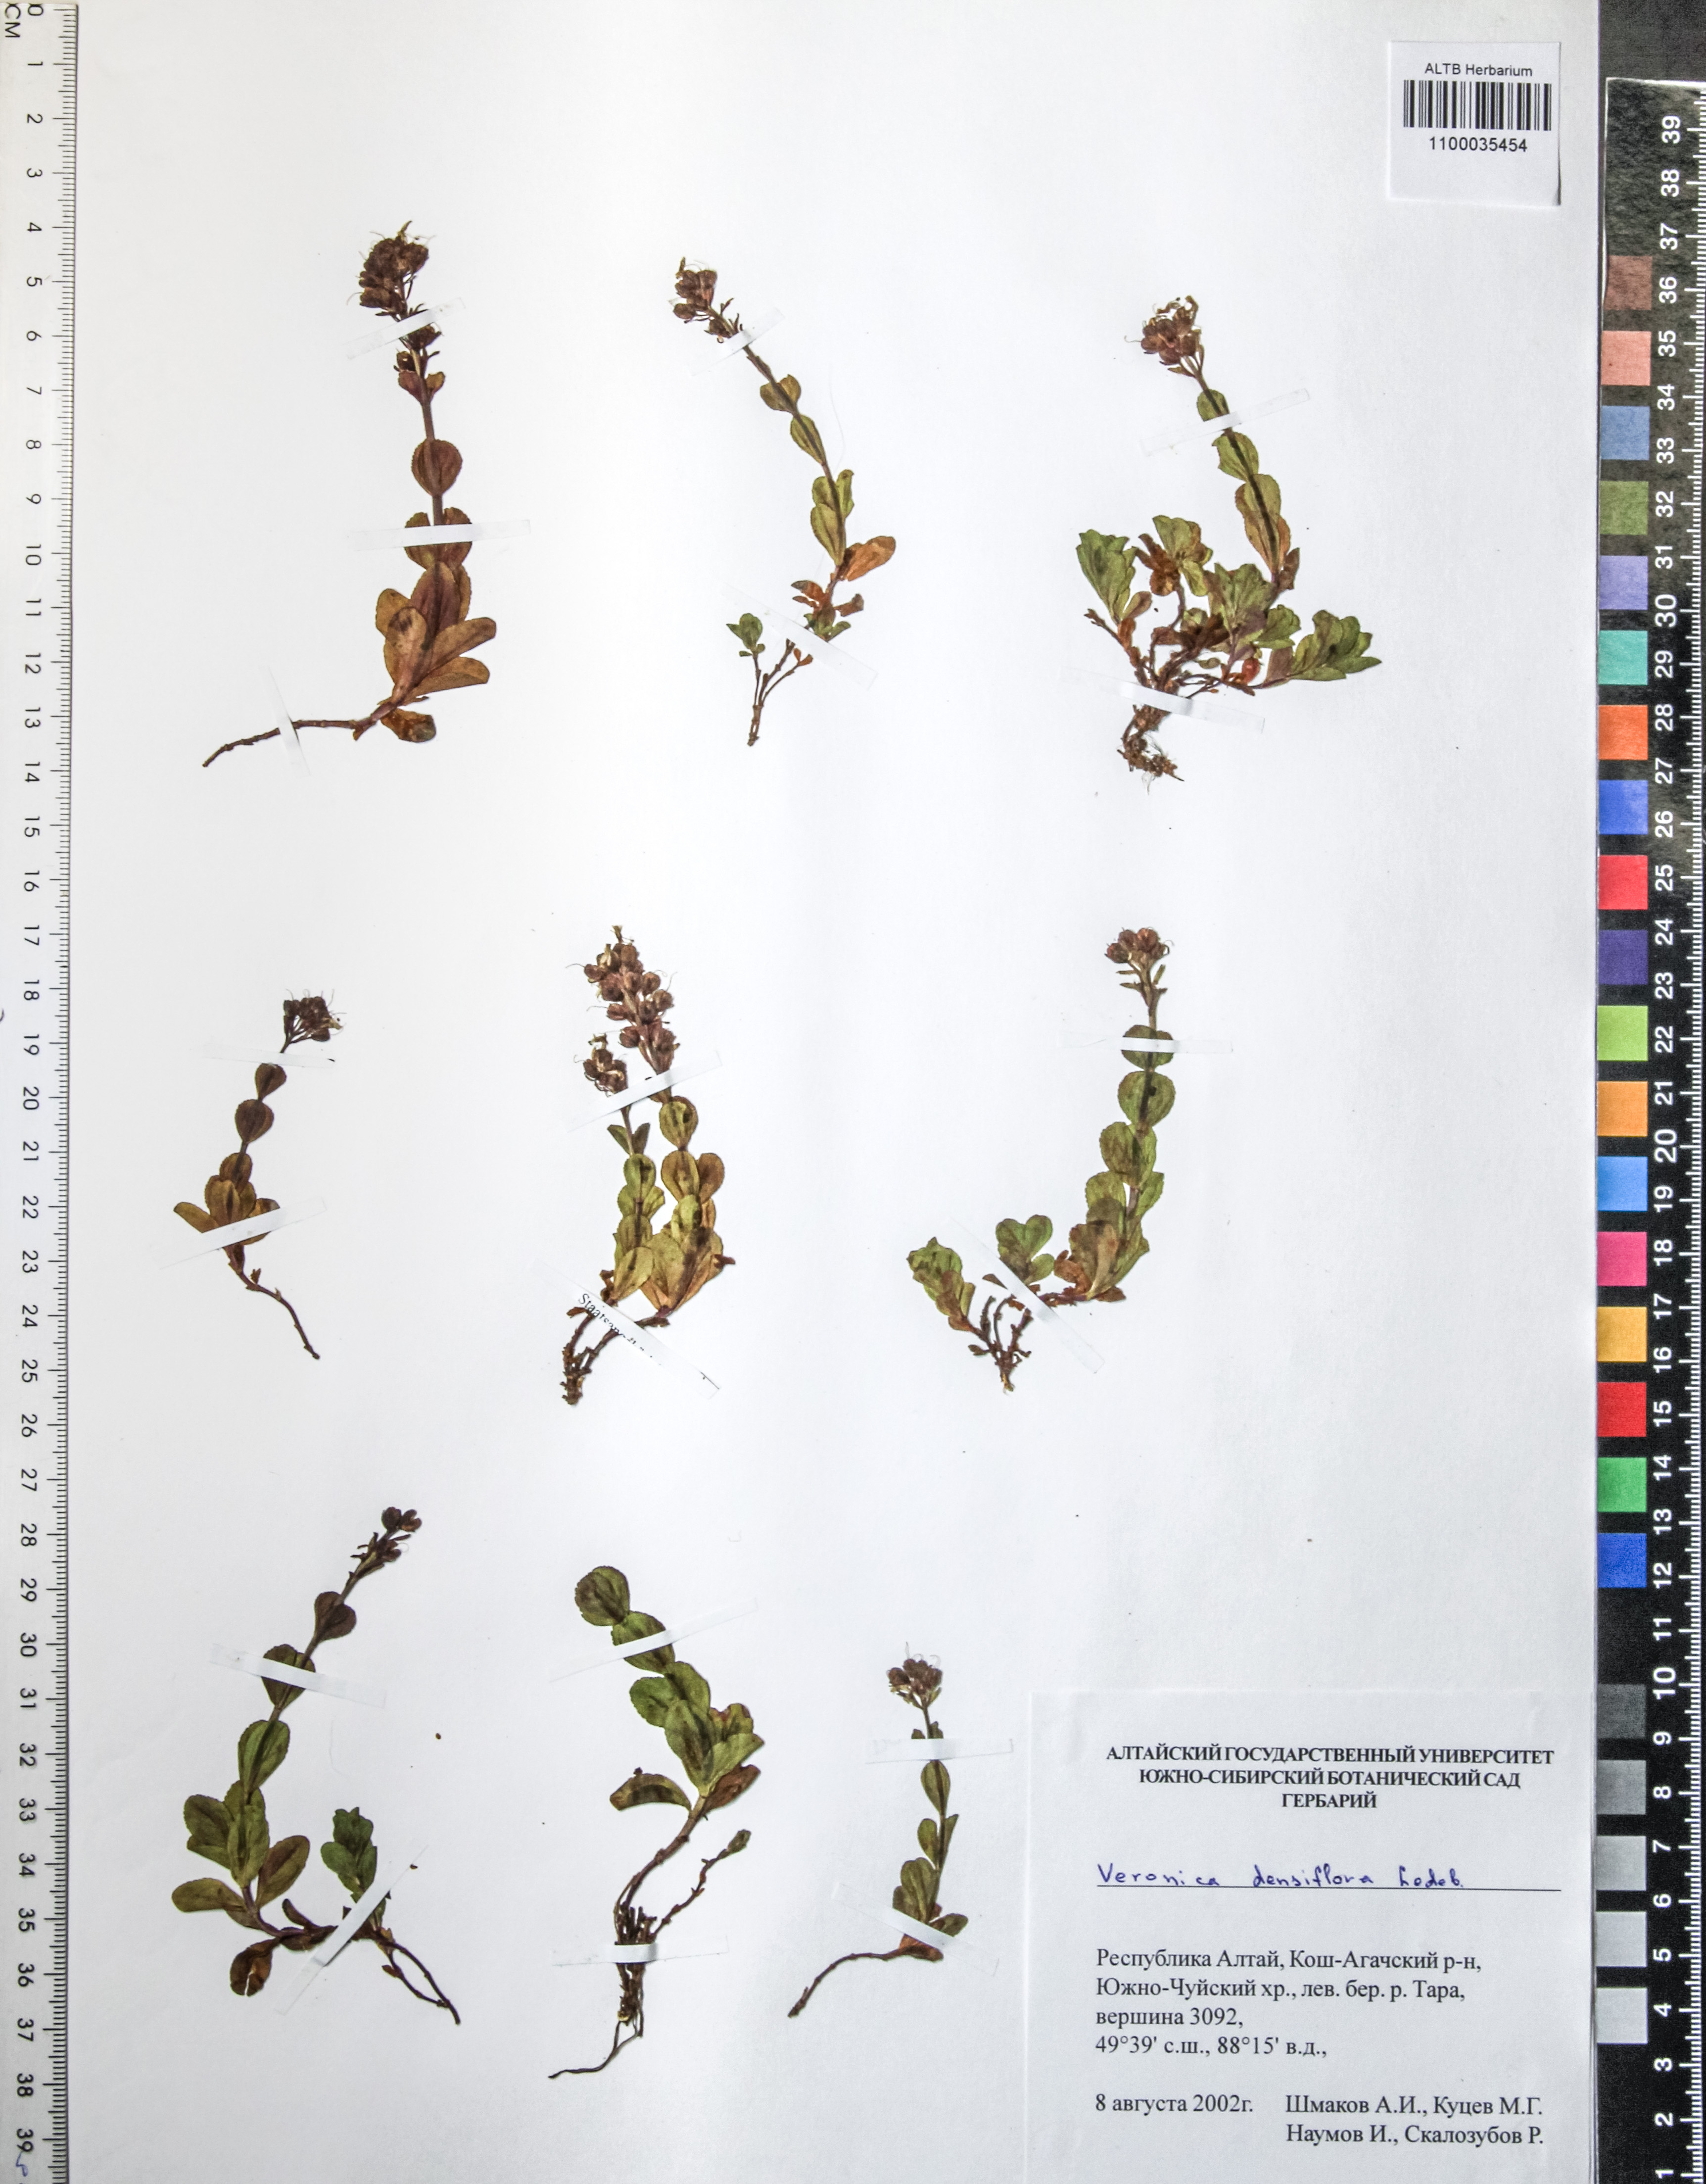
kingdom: Plantae
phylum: Tracheophyta
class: Magnoliopsida
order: Lamiales
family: Plantaginaceae
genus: Veronica
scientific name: Veronica densiflora
